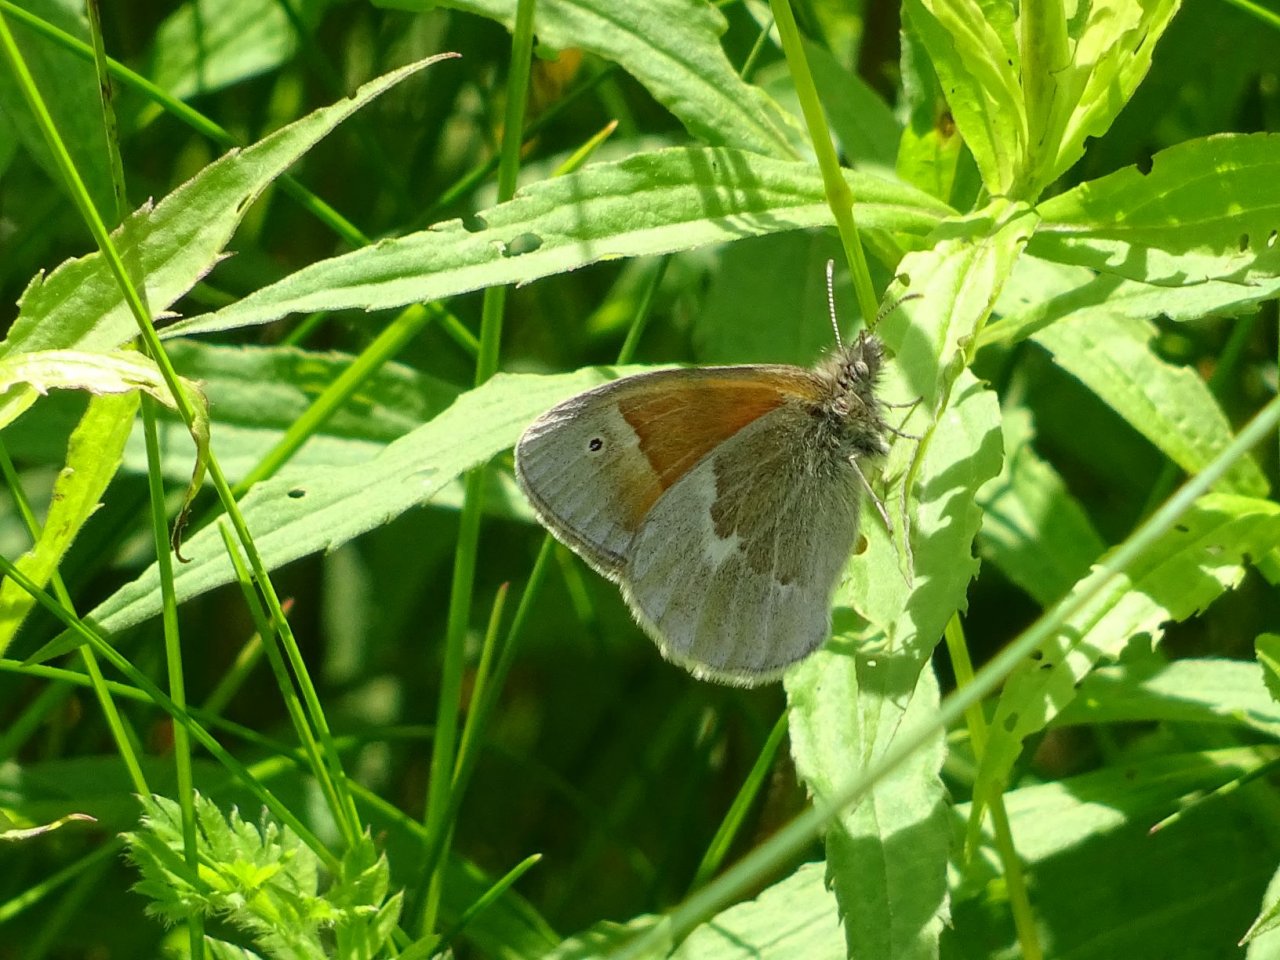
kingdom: Animalia
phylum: Arthropoda
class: Insecta
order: Lepidoptera
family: Nymphalidae
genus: Coenonympha
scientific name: Coenonympha tullia
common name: Large Heath
